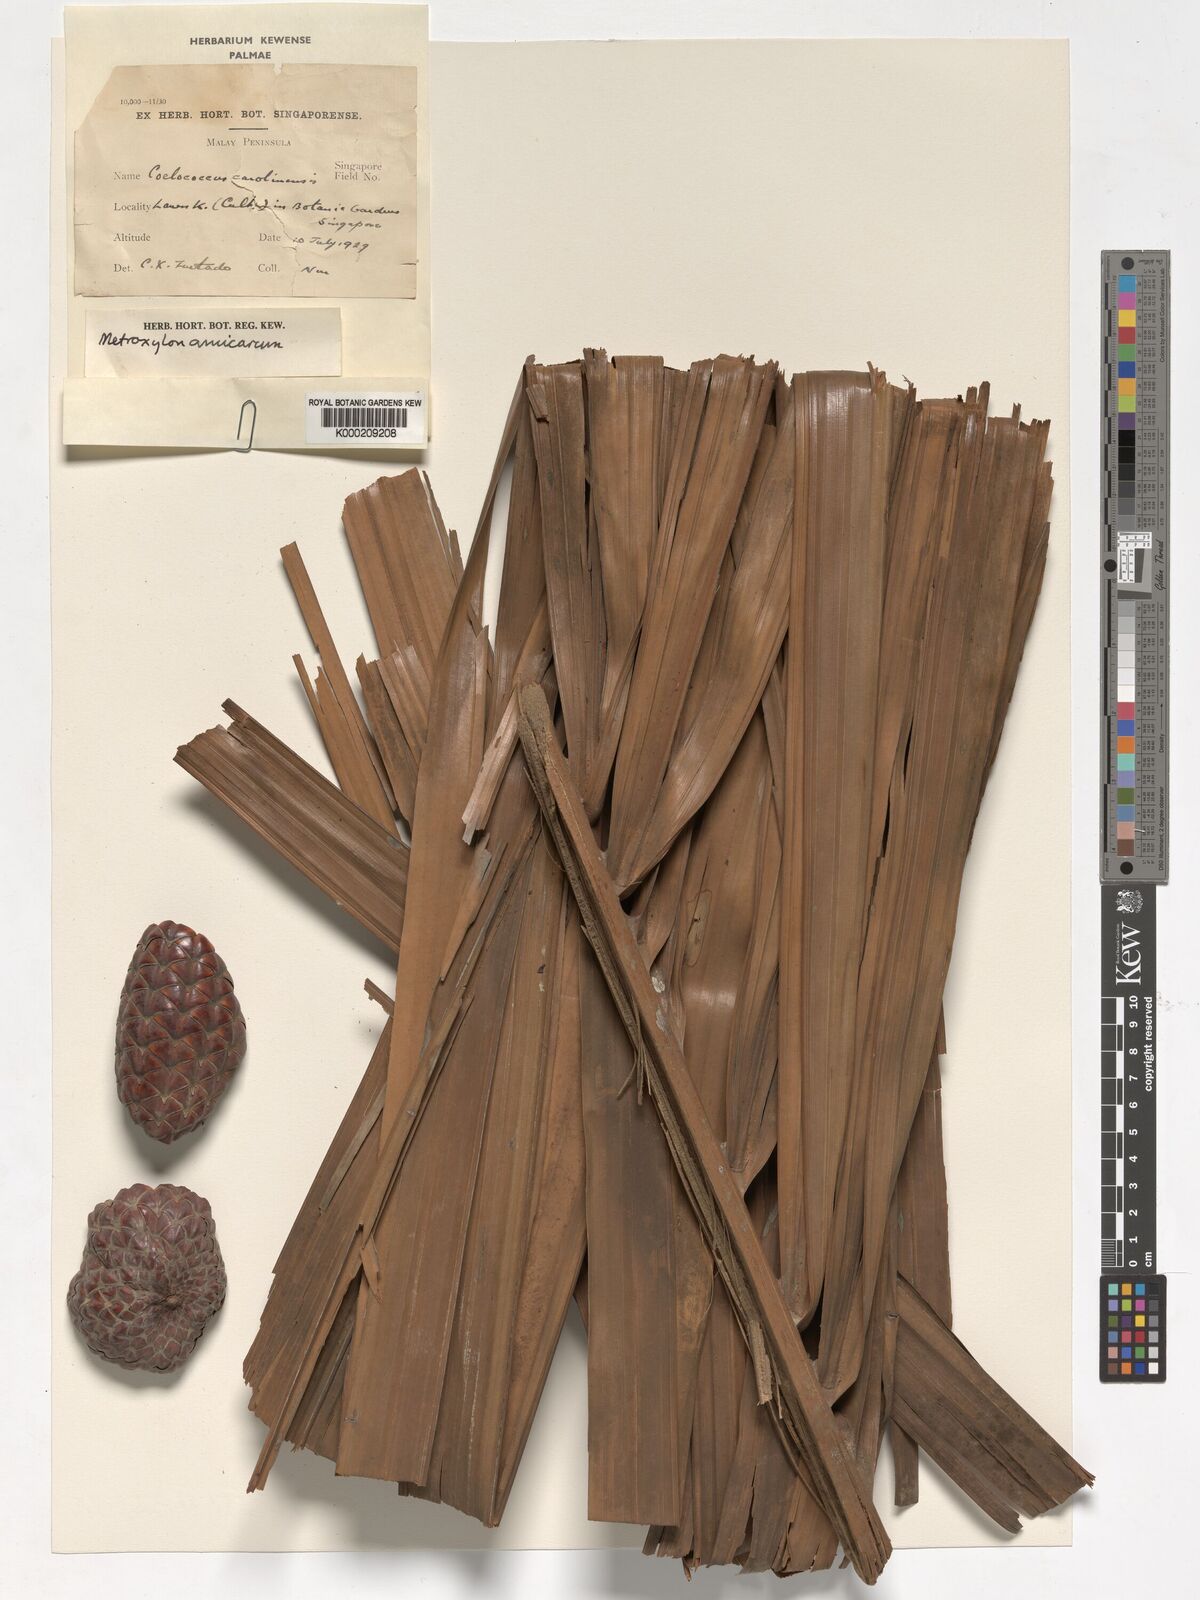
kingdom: Plantae
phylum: Tracheophyta
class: Liliopsida
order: Arecales
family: Arecaceae
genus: Metroxylon
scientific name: Metroxylon amicarum
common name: Caroline ivory nut
